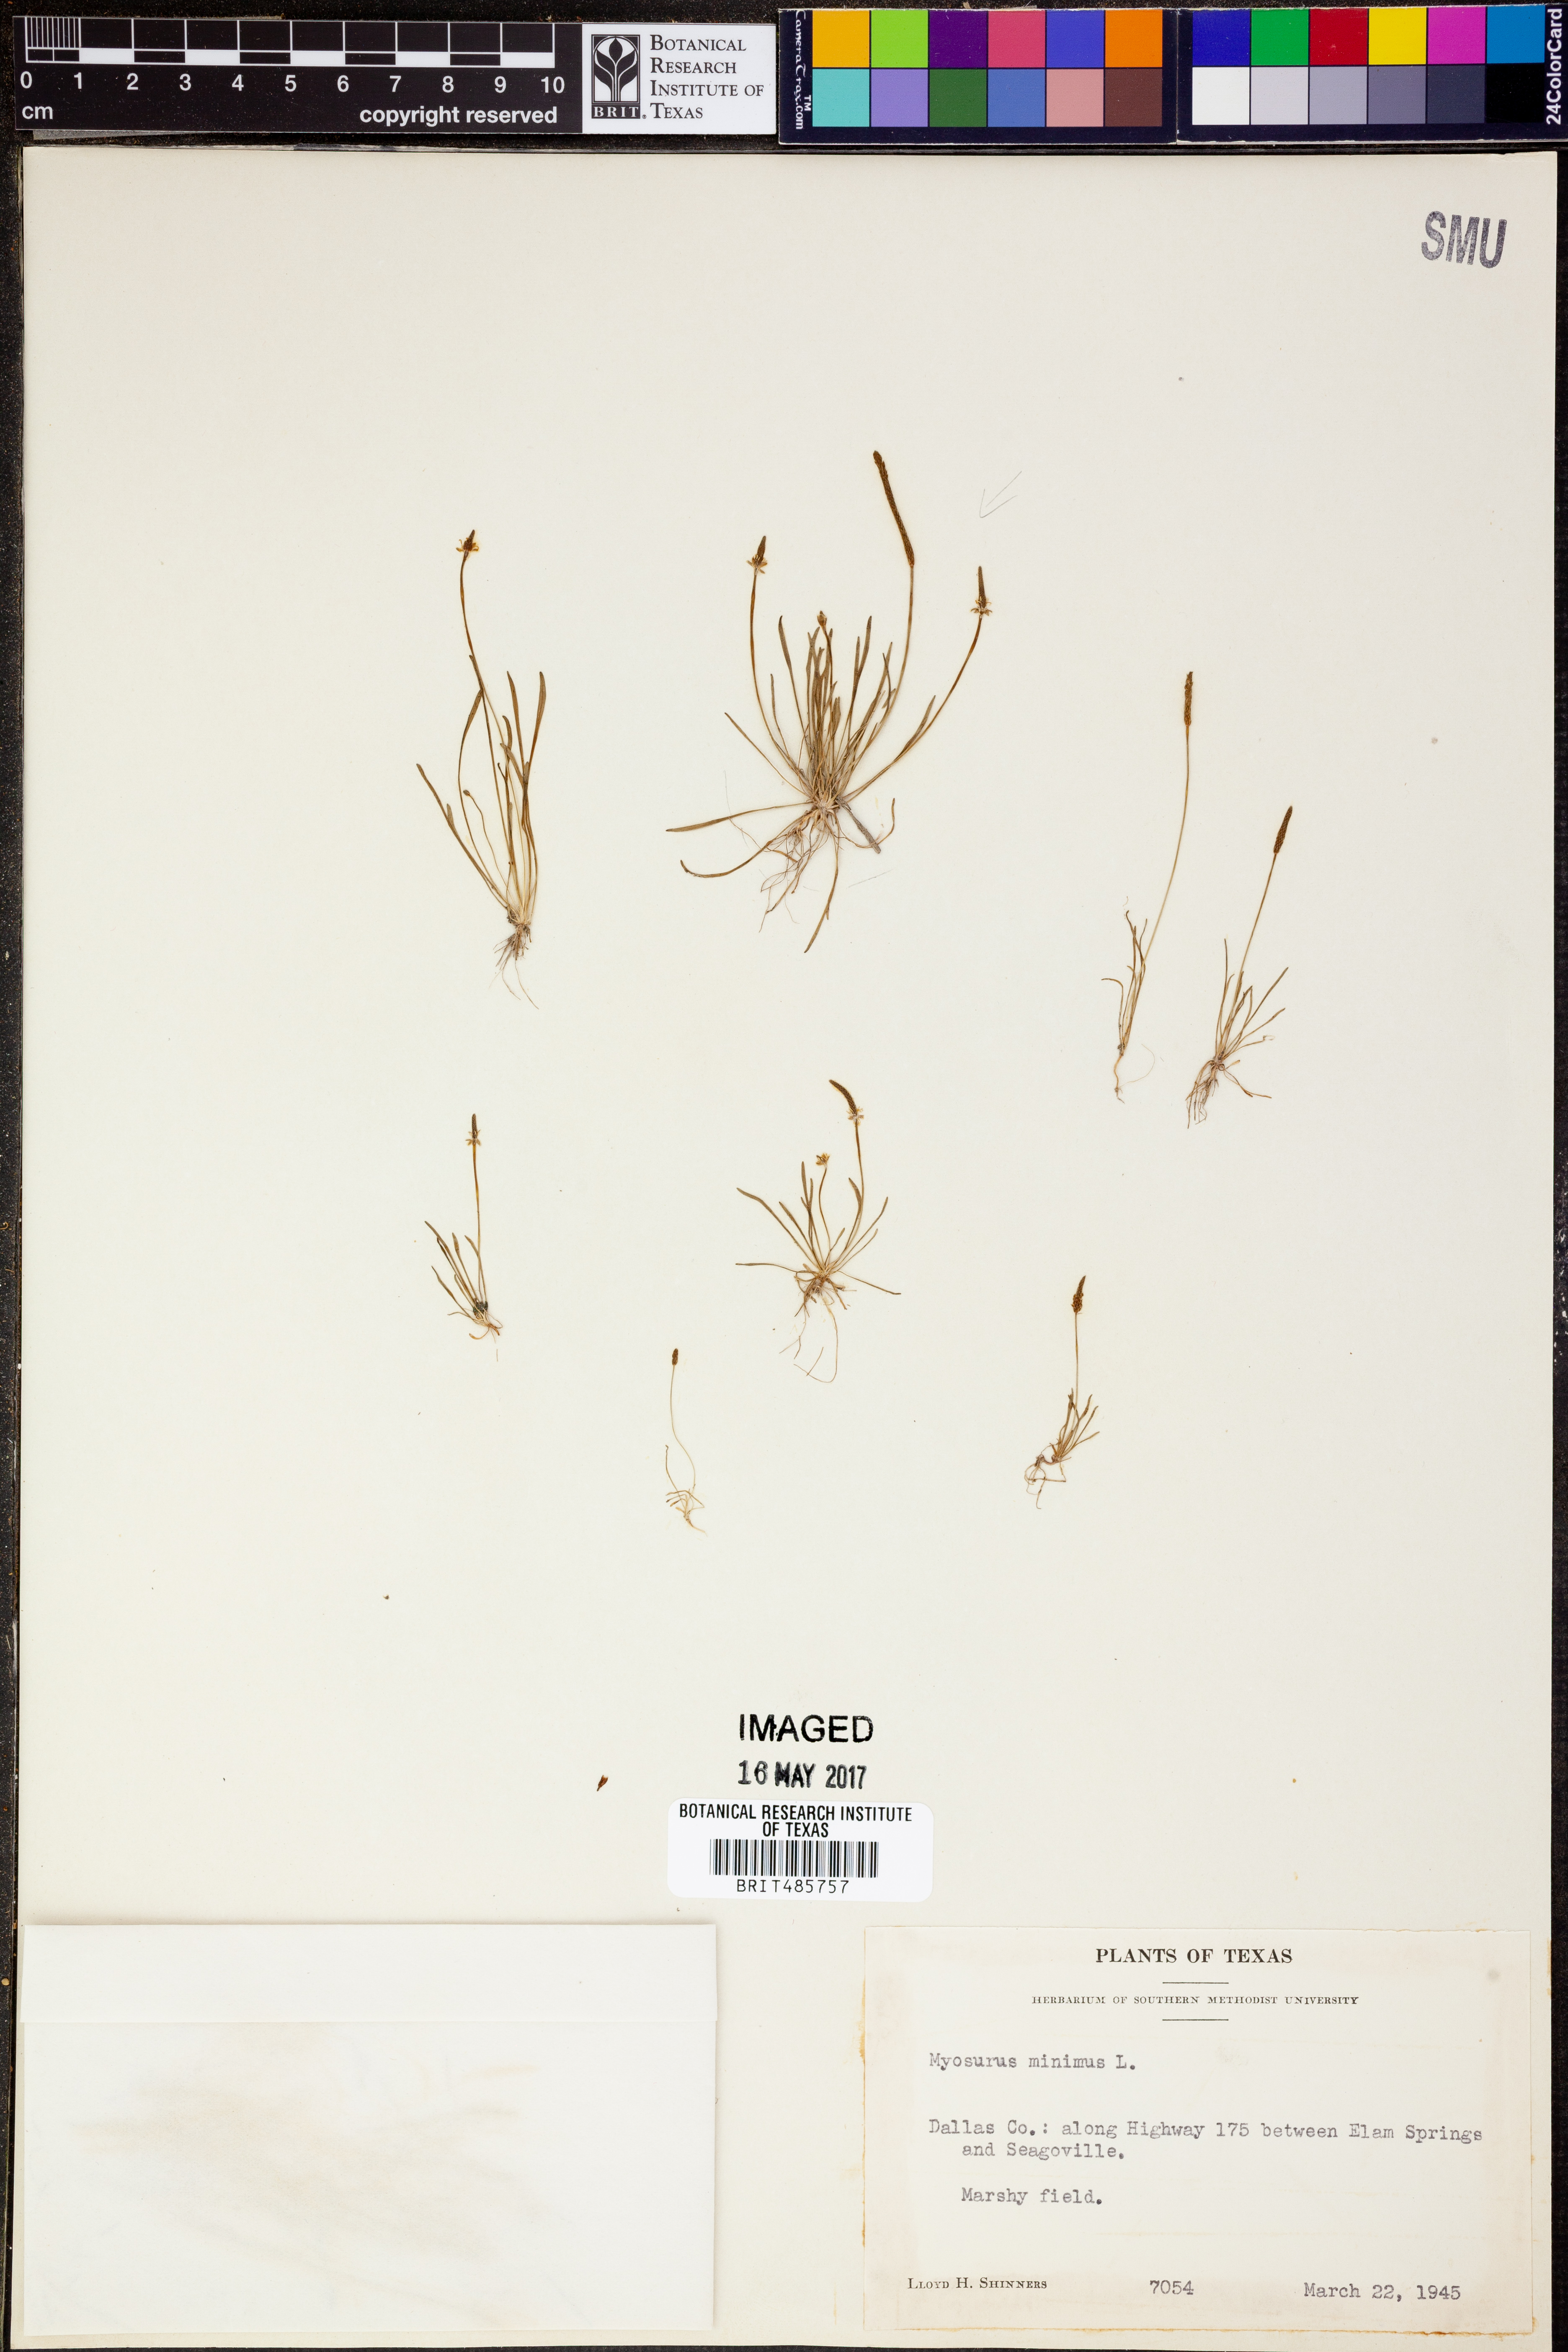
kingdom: Plantae
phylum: Tracheophyta
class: Magnoliopsida
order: Ranunculales
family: Ranunculaceae
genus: Myosurus
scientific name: Myosurus minimus
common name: Mousetail
